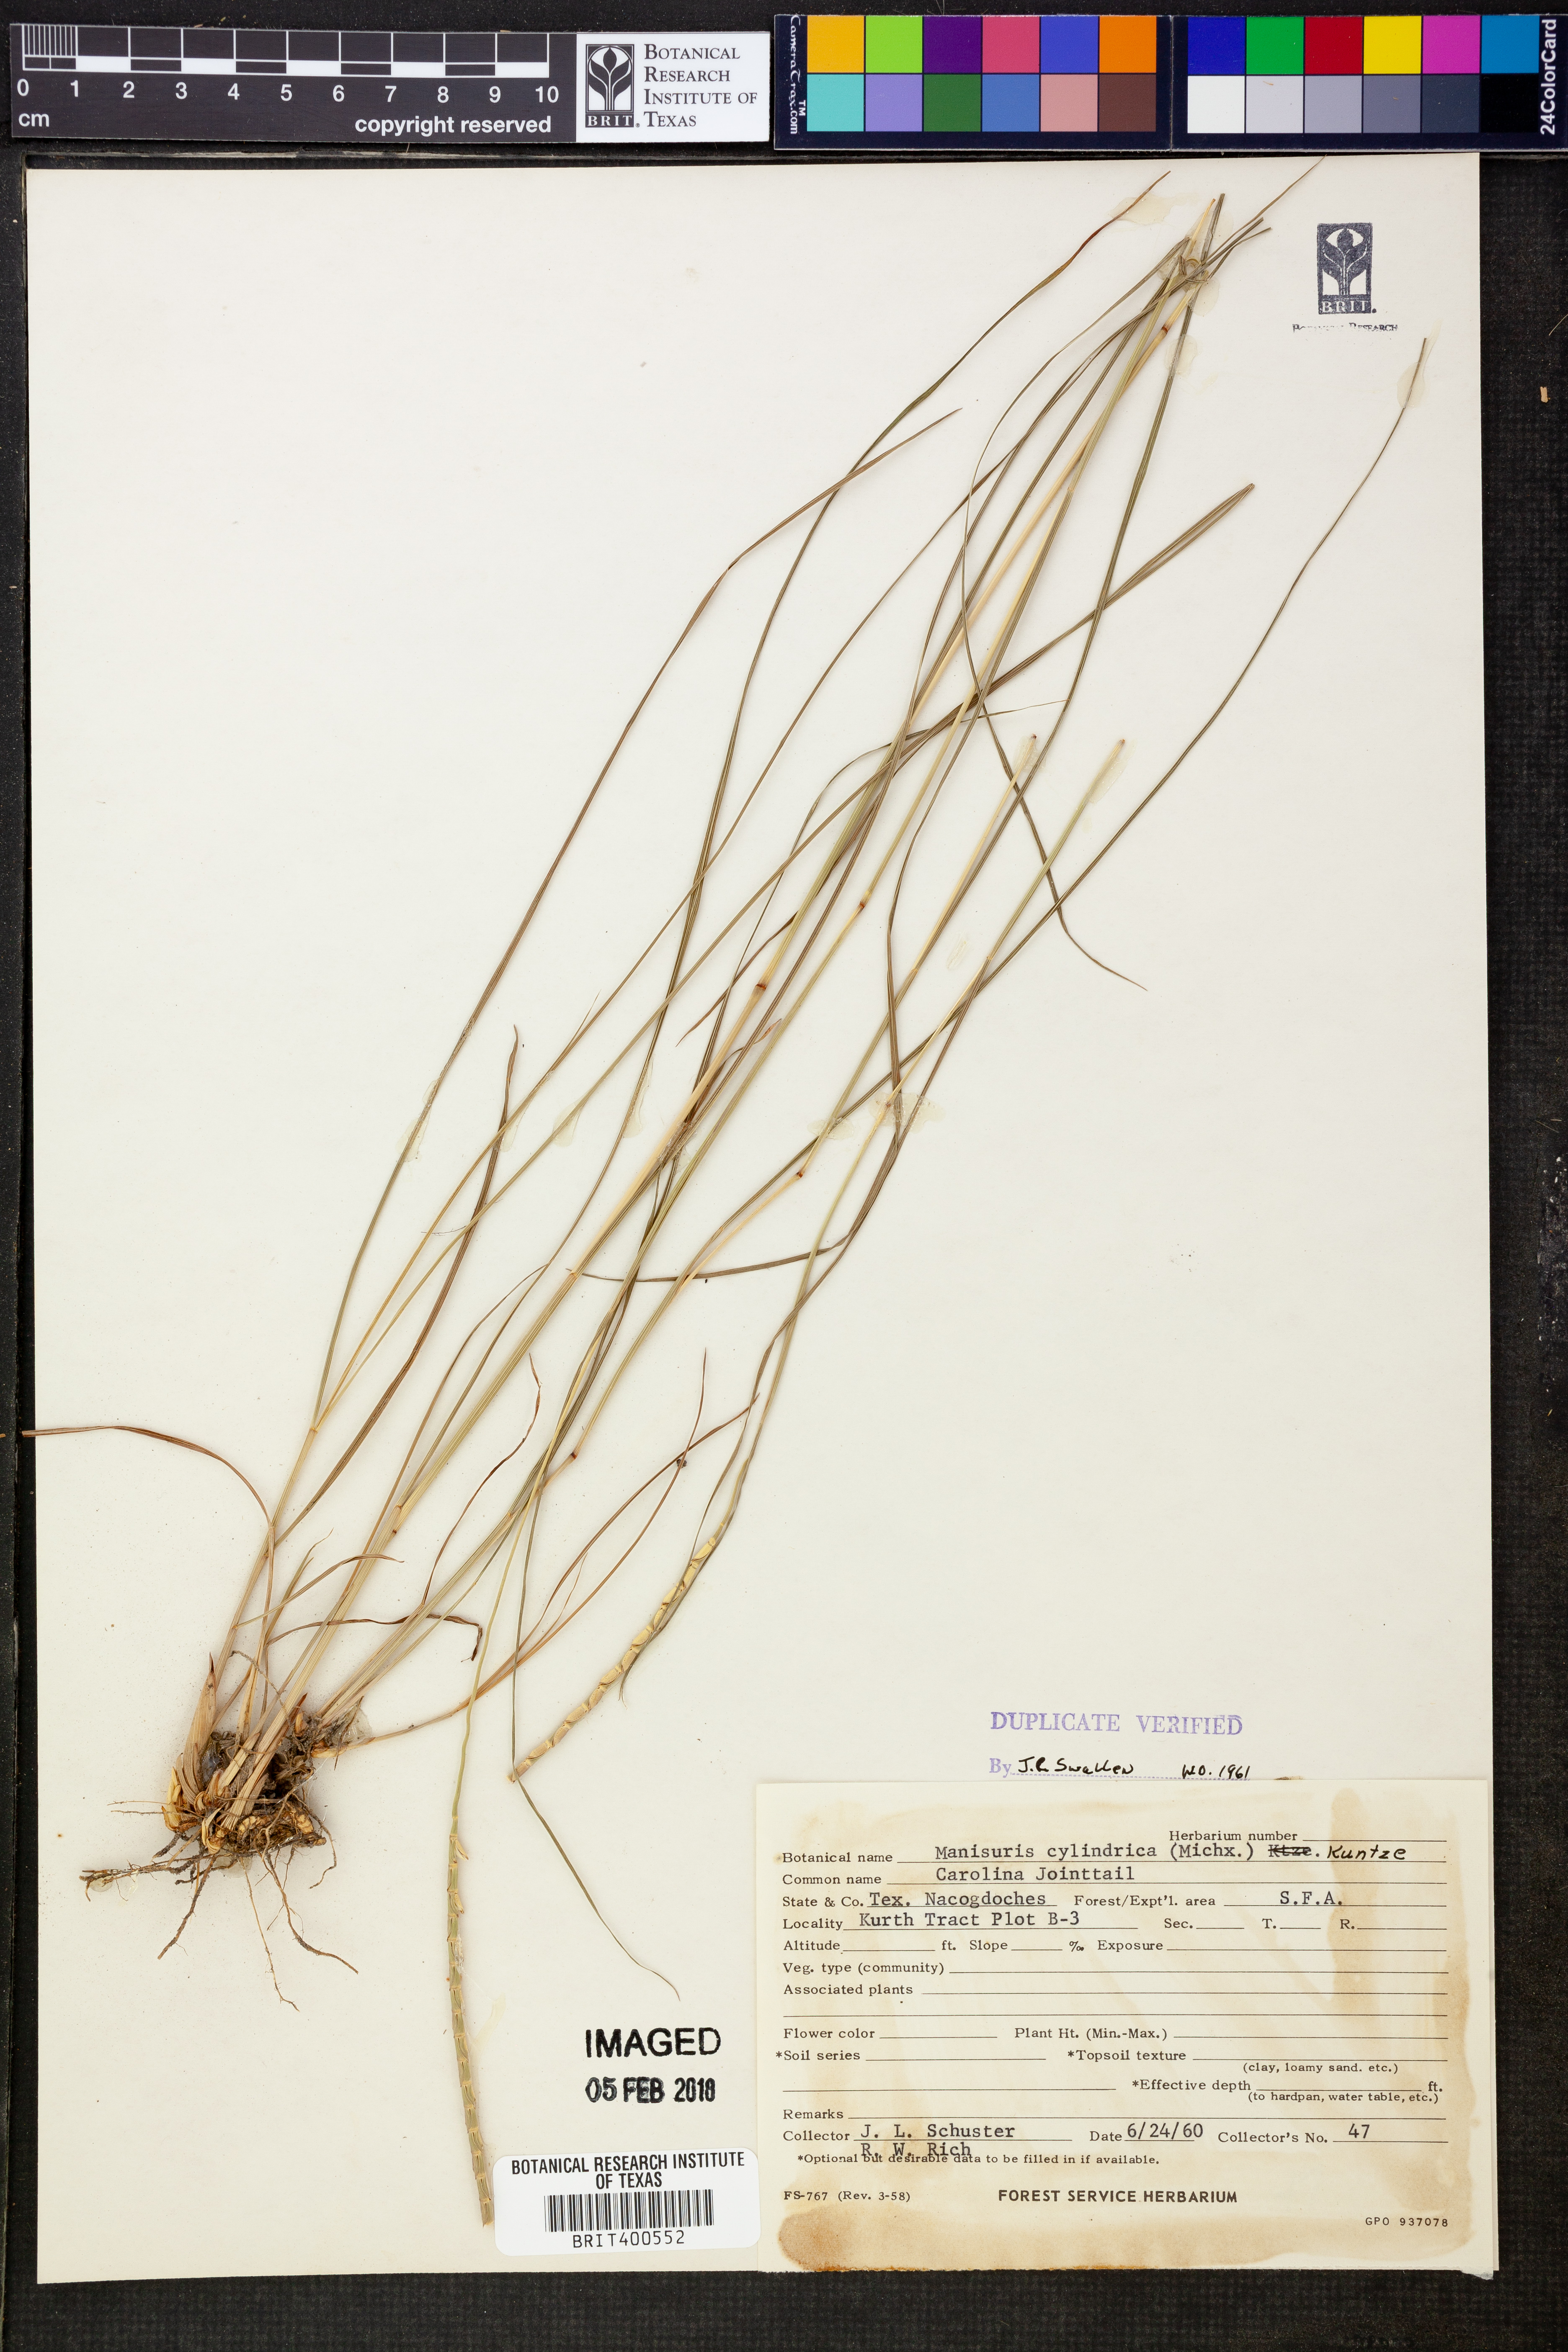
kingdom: Plantae
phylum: Tracheophyta
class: Liliopsida
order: Poales
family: Poaceae
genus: Rottboellia
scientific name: Rottboellia campestris
